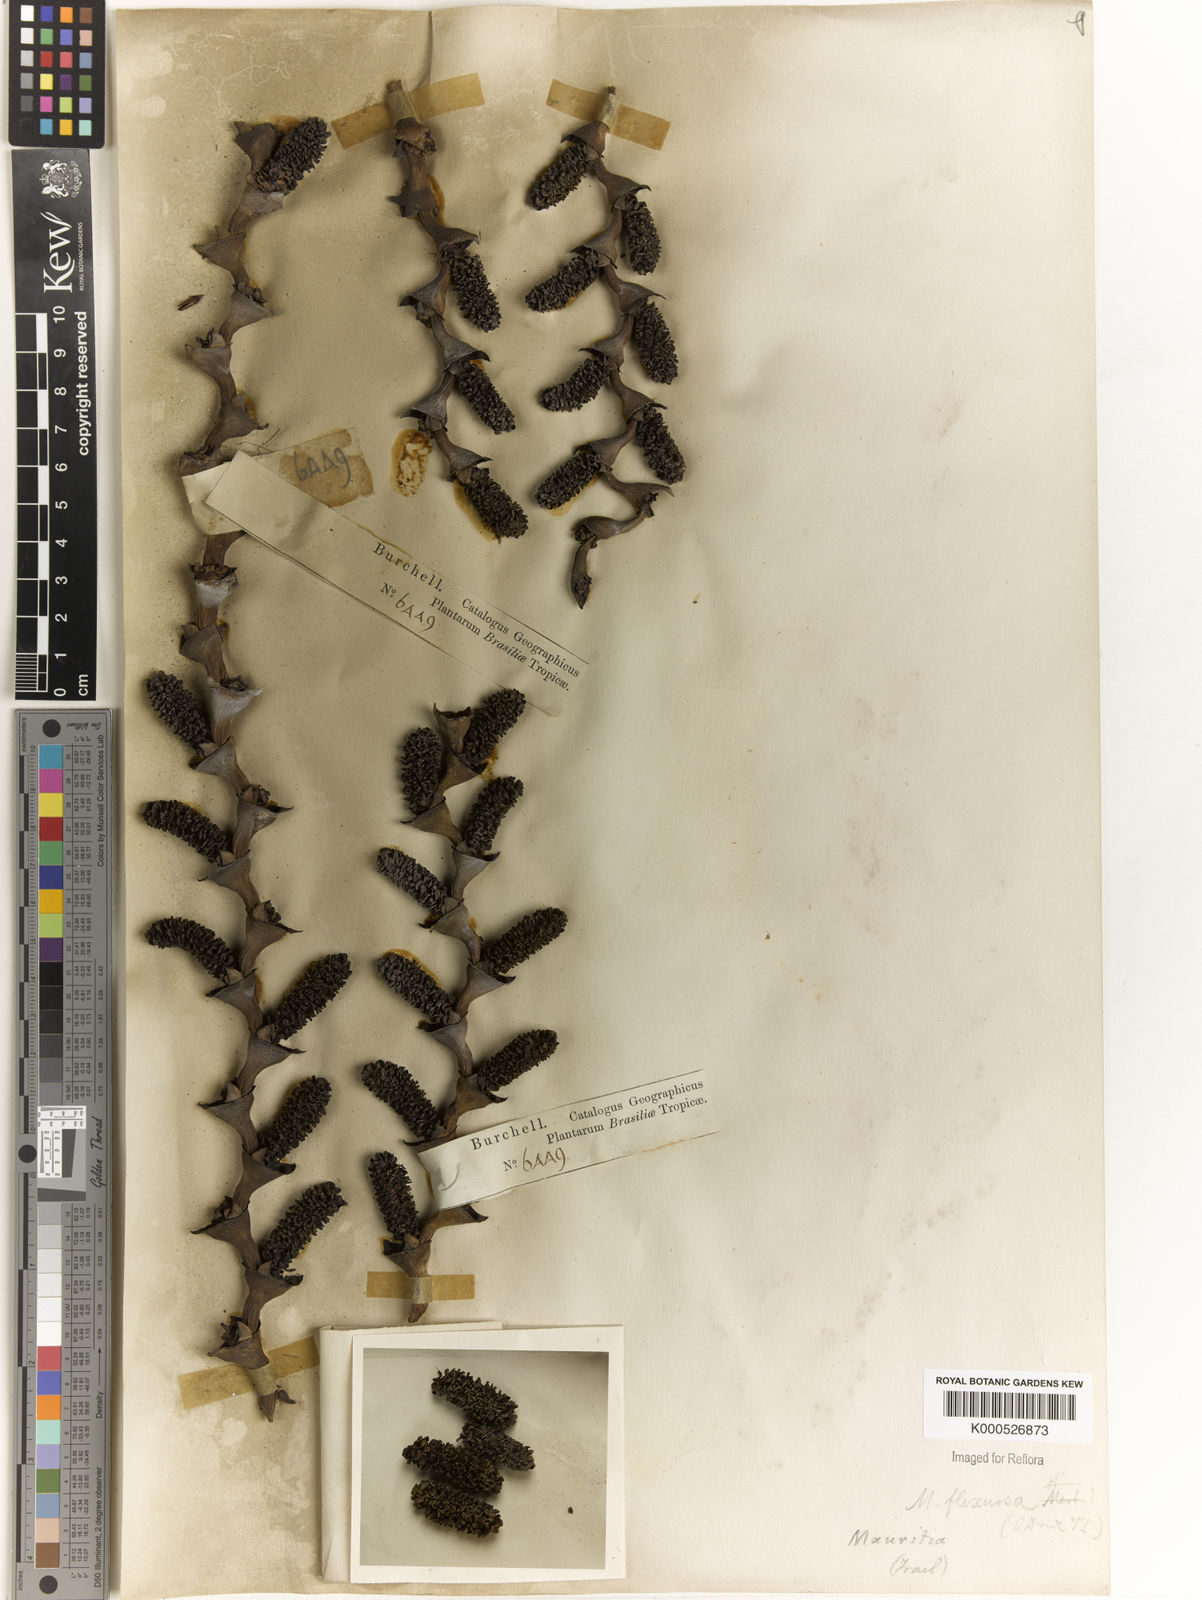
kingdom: Plantae
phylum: Tracheophyta
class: Liliopsida
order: Arecales
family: Arecaceae
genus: Mauritia
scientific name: Mauritia flexuosa
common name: Tree-of-life
